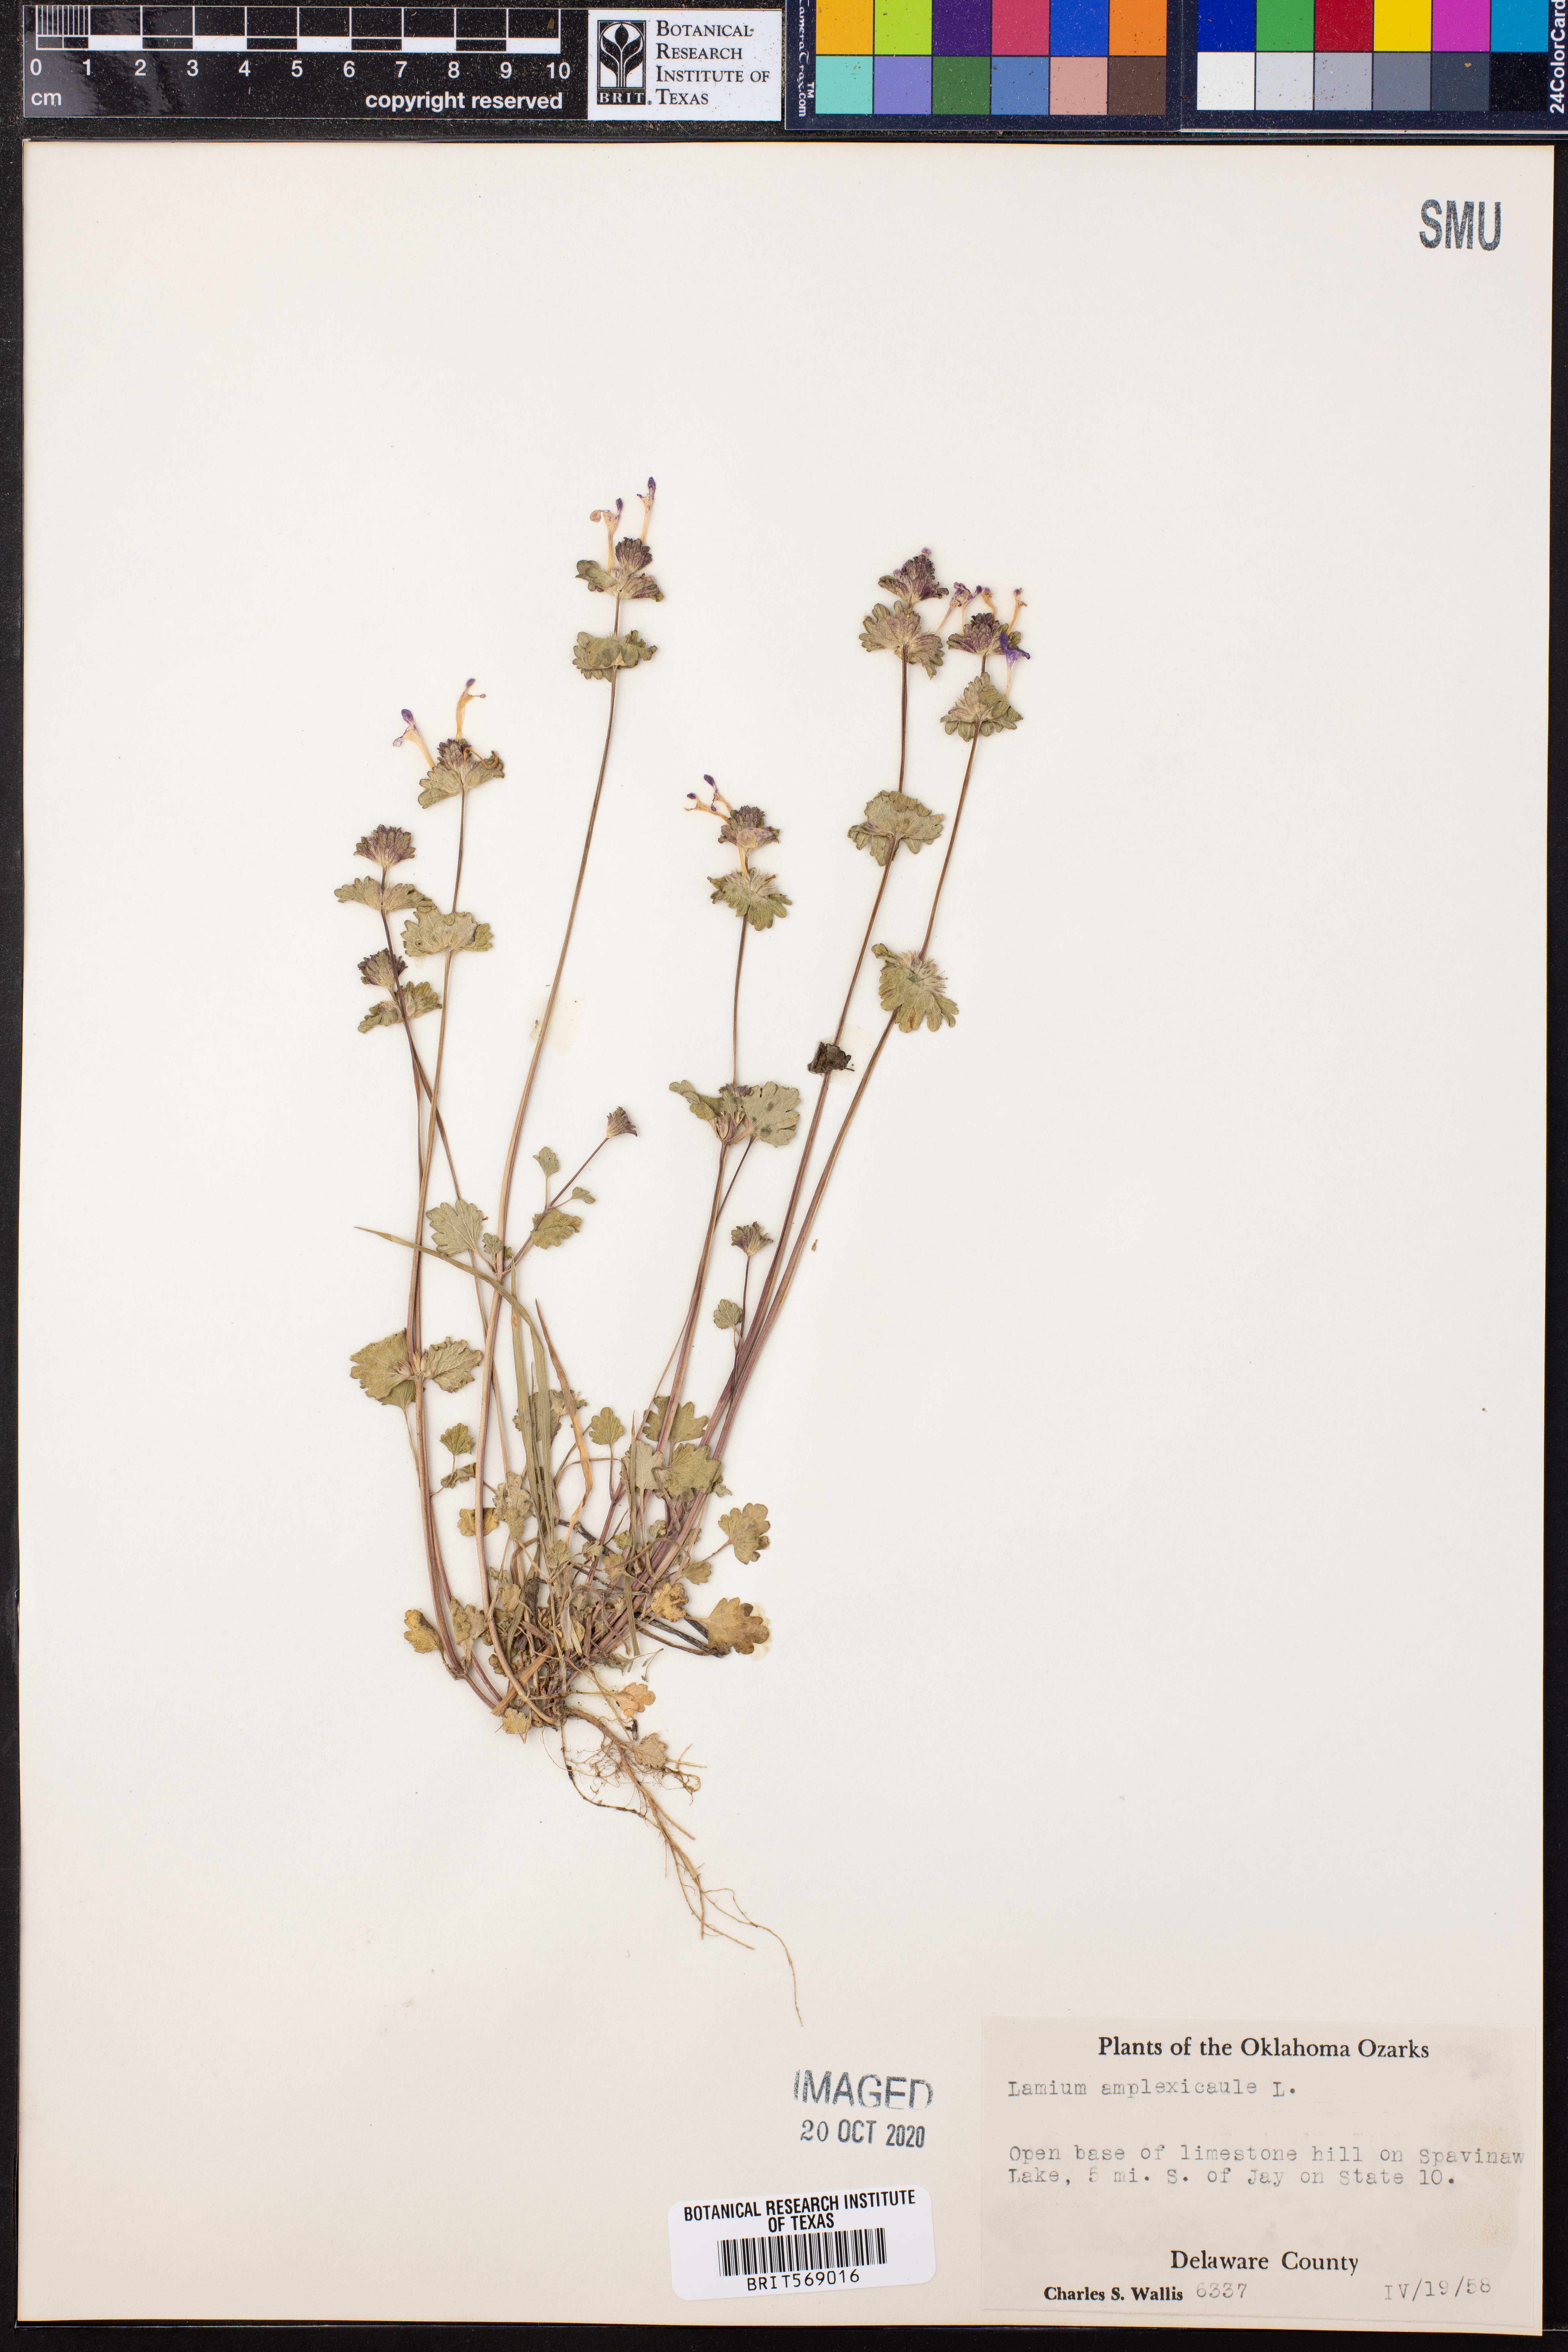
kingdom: Plantae
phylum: Tracheophyta
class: Magnoliopsida
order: Lamiales
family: Lamiaceae
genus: Lamium
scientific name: Lamium amplexicaule
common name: Henbit dead-nettle
